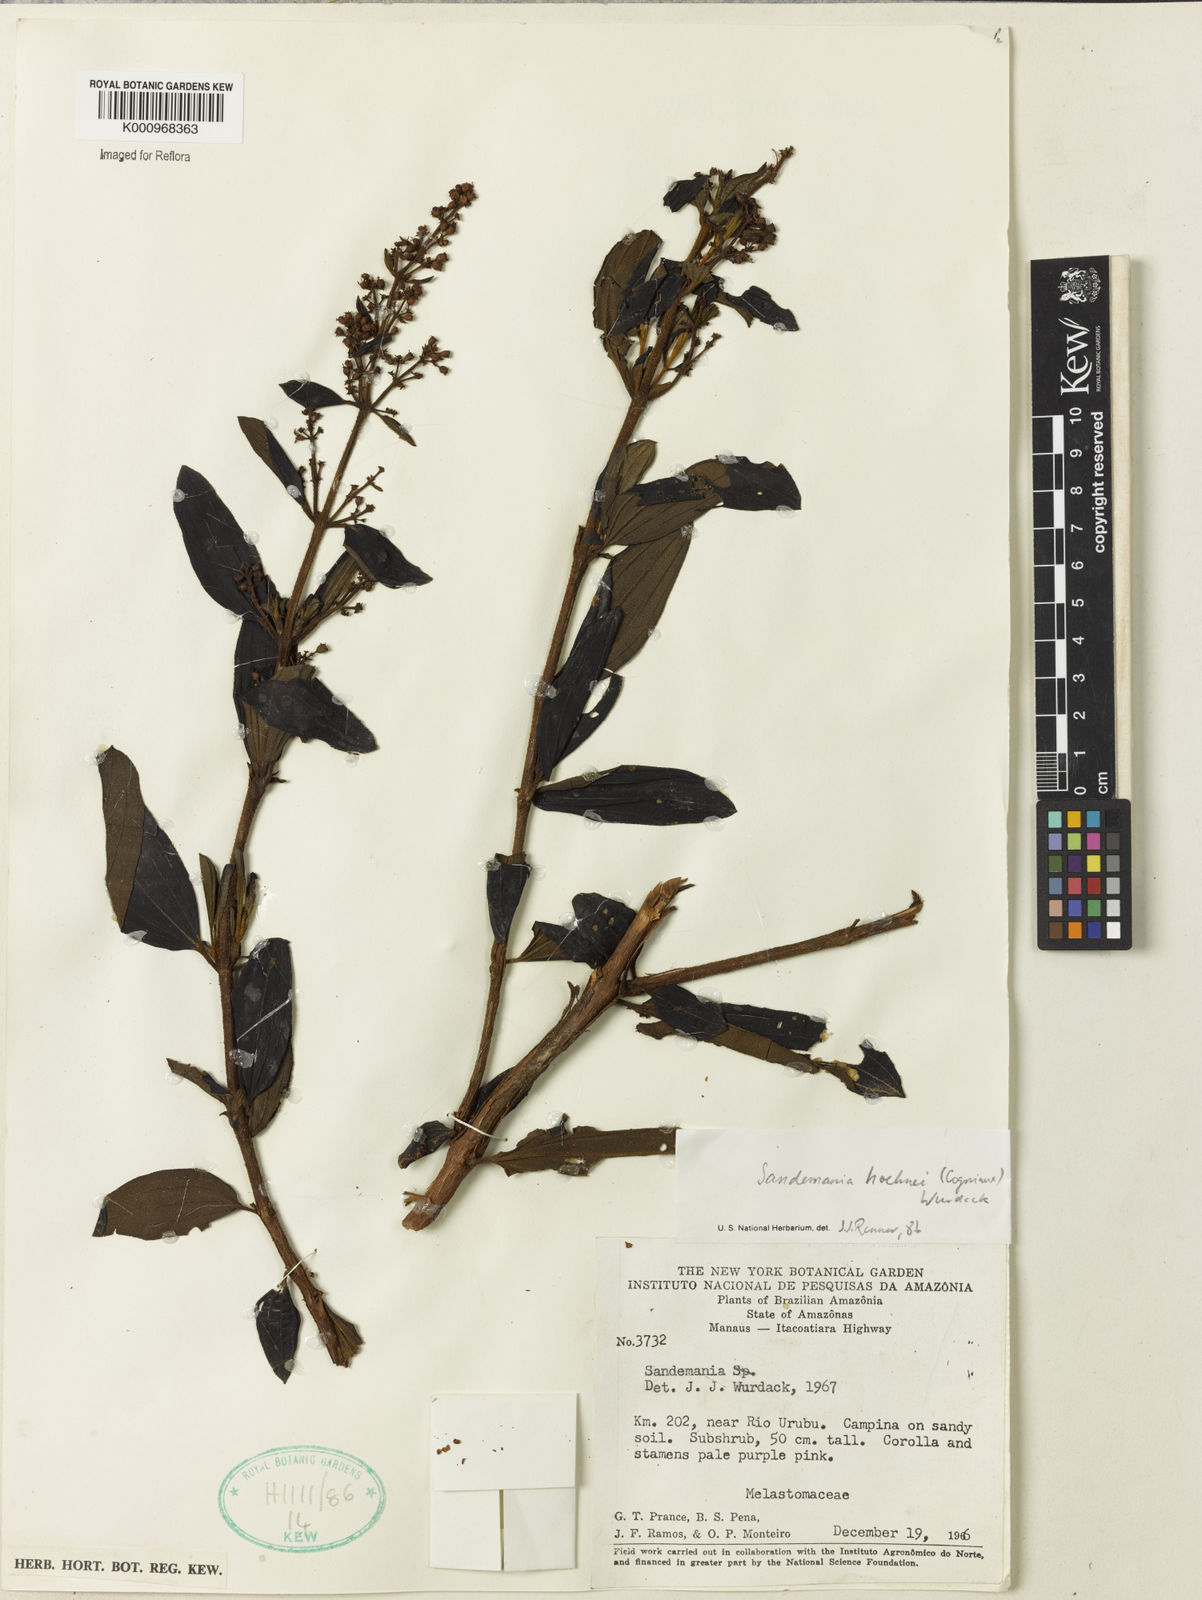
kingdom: Plantae
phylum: Tracheophyta
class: Magnoliopsida
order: Myrtales
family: Melastomataceae
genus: Sandemania
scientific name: Sandemania hoehnei
